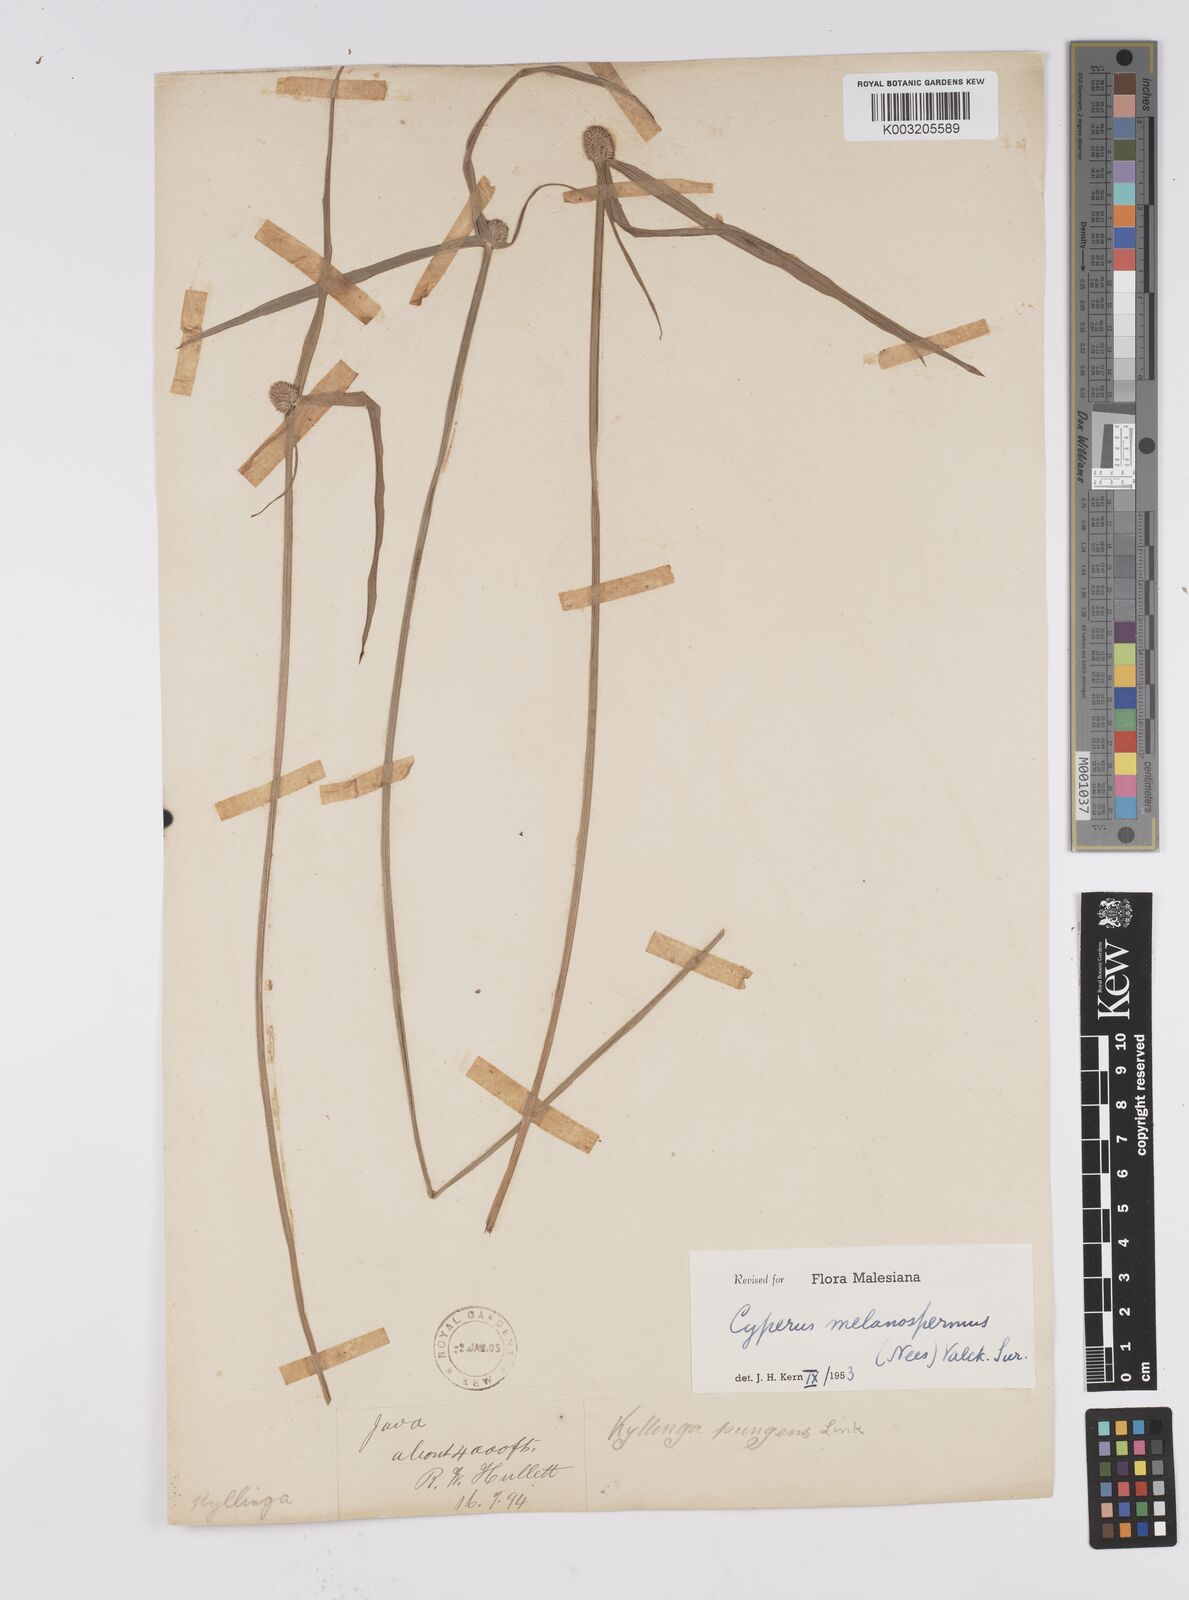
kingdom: Plantae
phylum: Tracheophyta
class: Liliopsida
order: Poales
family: Cyperaceae
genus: Cyperus
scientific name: Cyperus melanospermus
